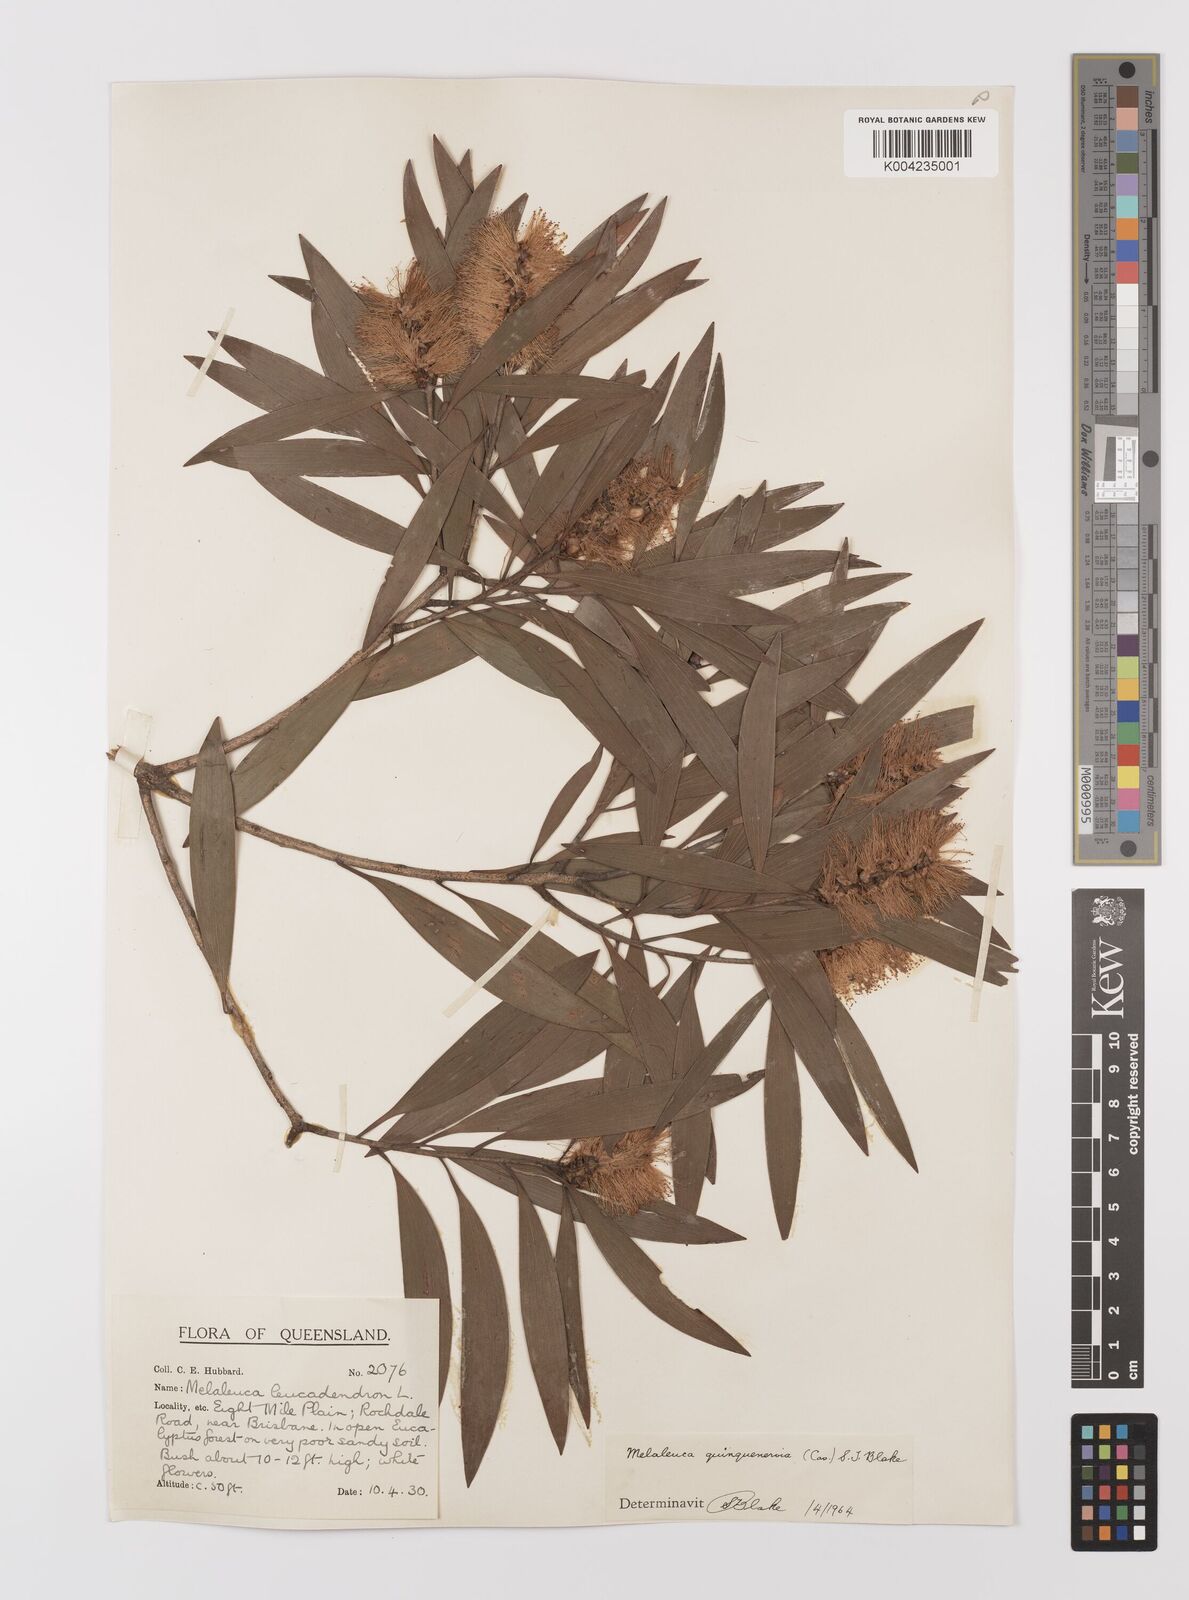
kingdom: Plantae
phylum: Tracheophyta
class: Magnoliopsida
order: Myrtales
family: Myrtaceae
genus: Melaleuca
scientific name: Melaleuca quinquenervia
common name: Punktree
